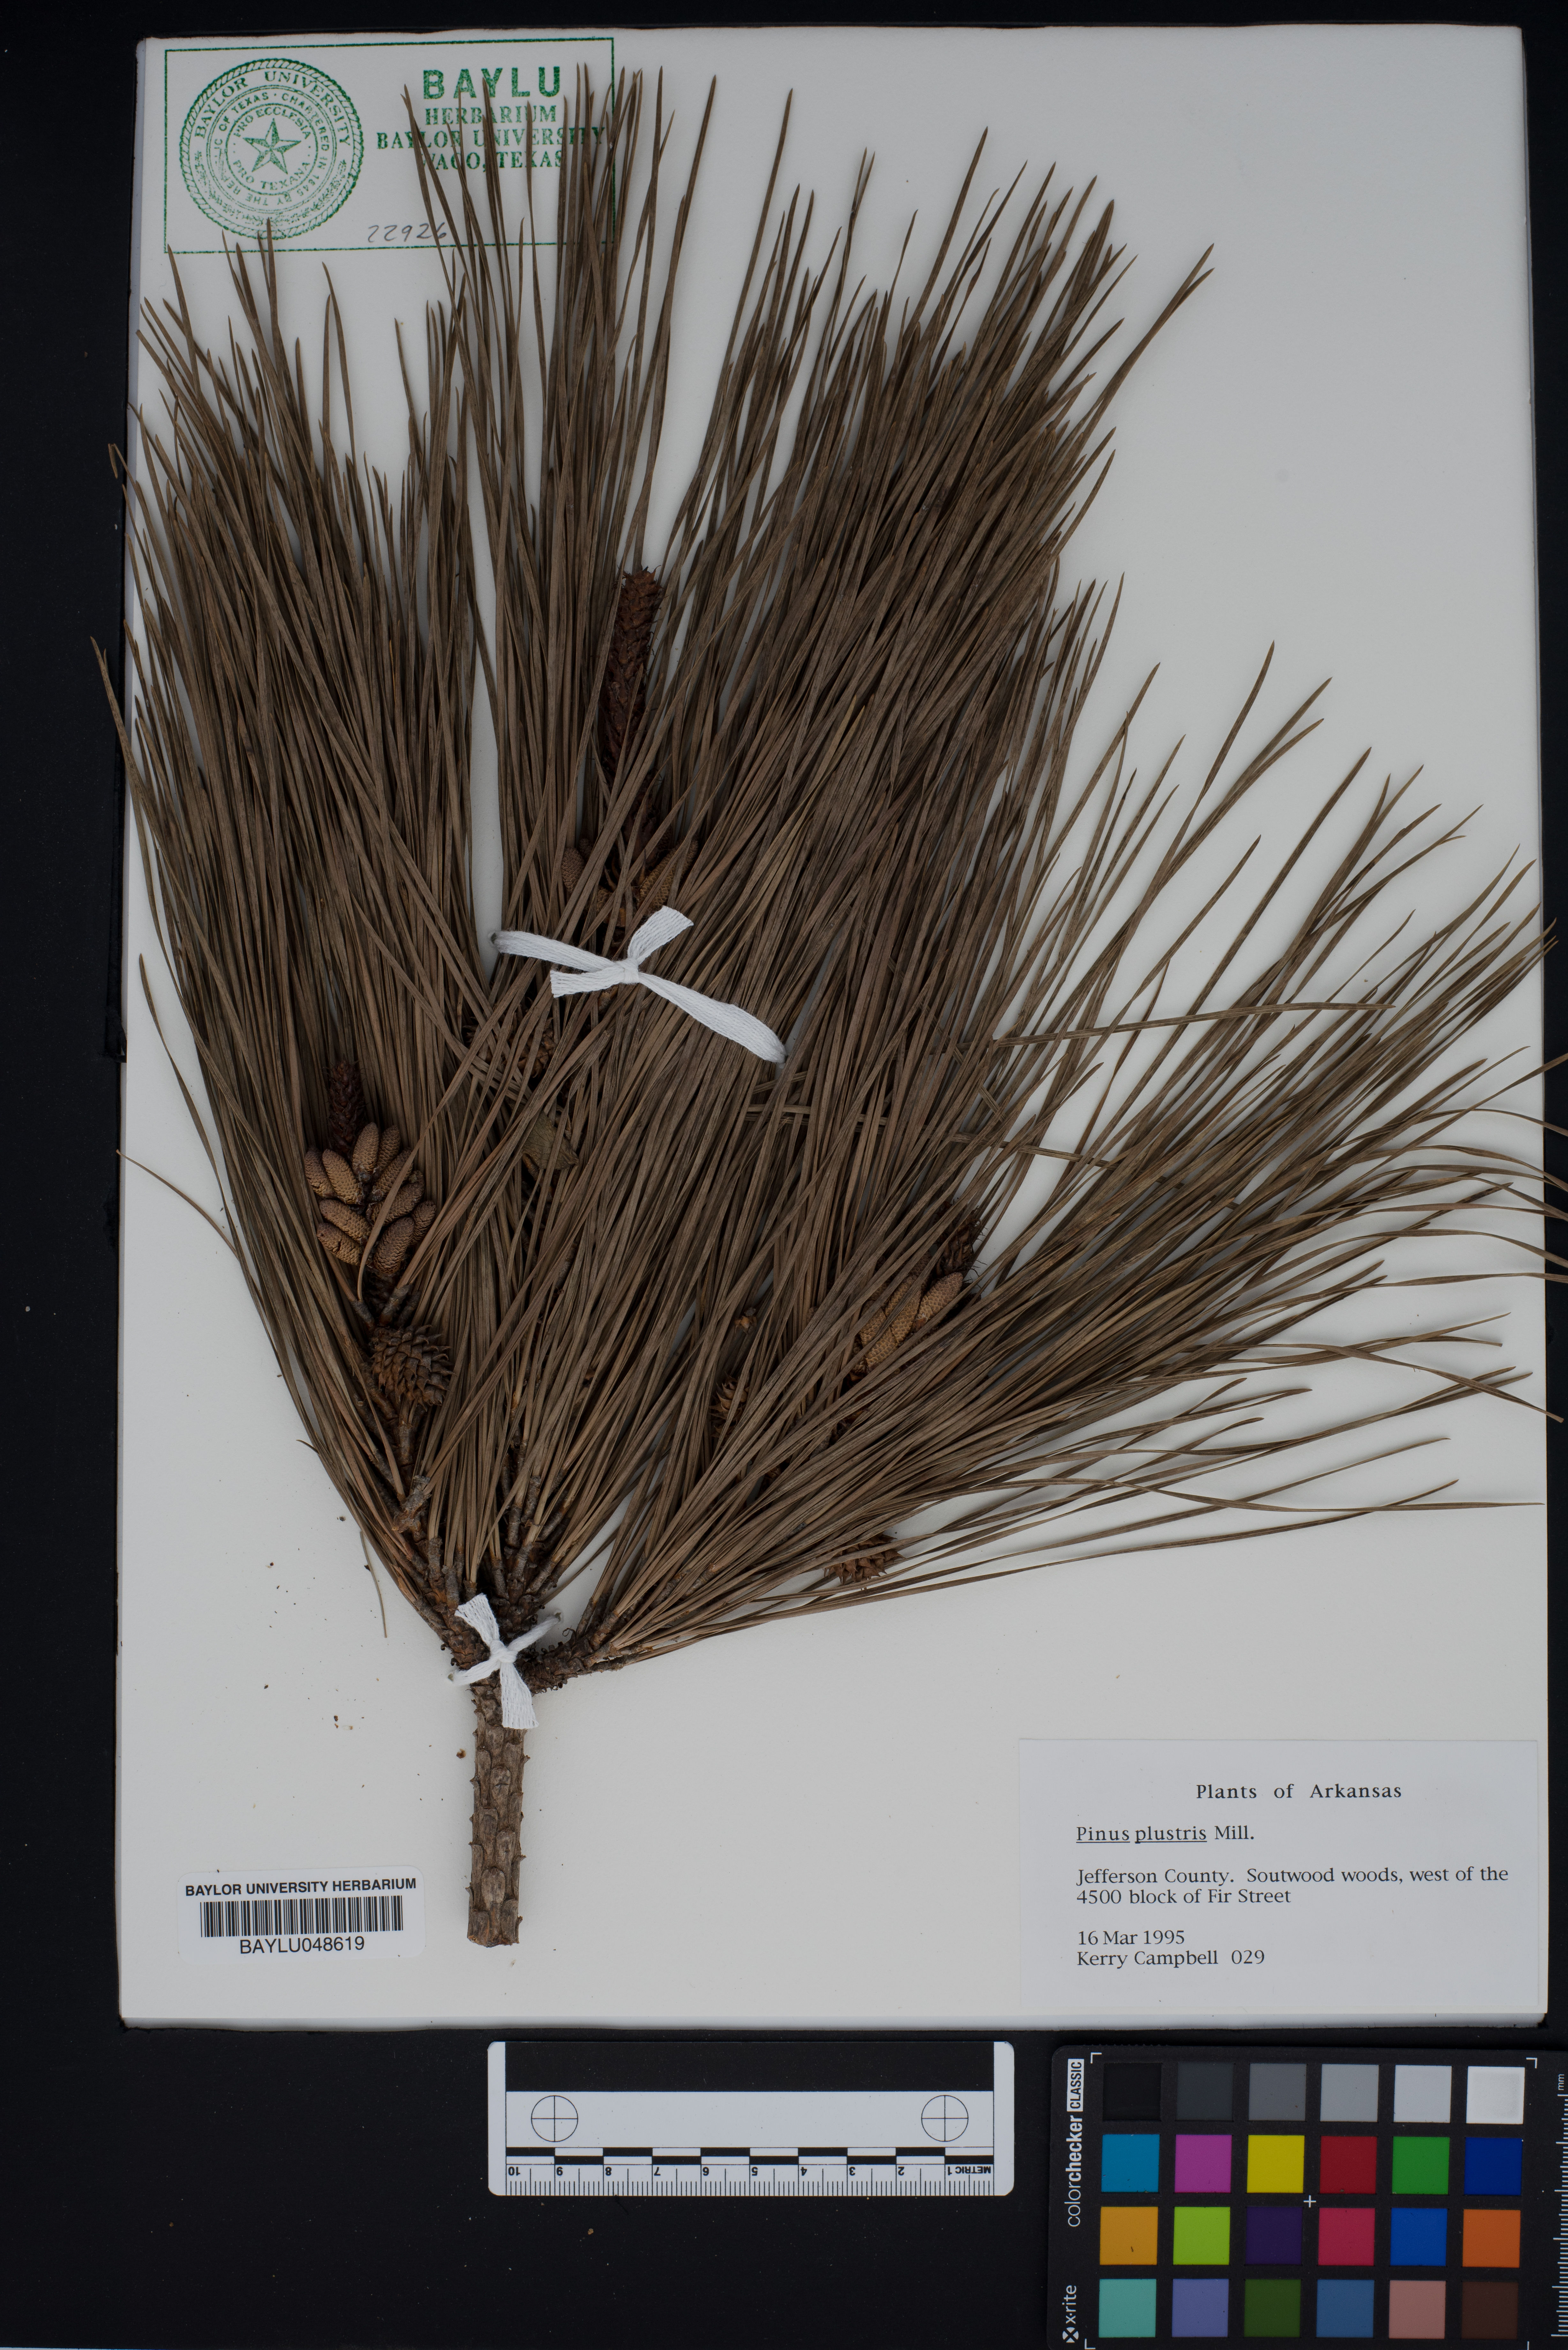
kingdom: Plantae
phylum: Tracheophyta
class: Pinopsida
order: Pinales
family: Pinaceae
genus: Pinus
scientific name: Pinus palustris
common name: Longleaf pine
